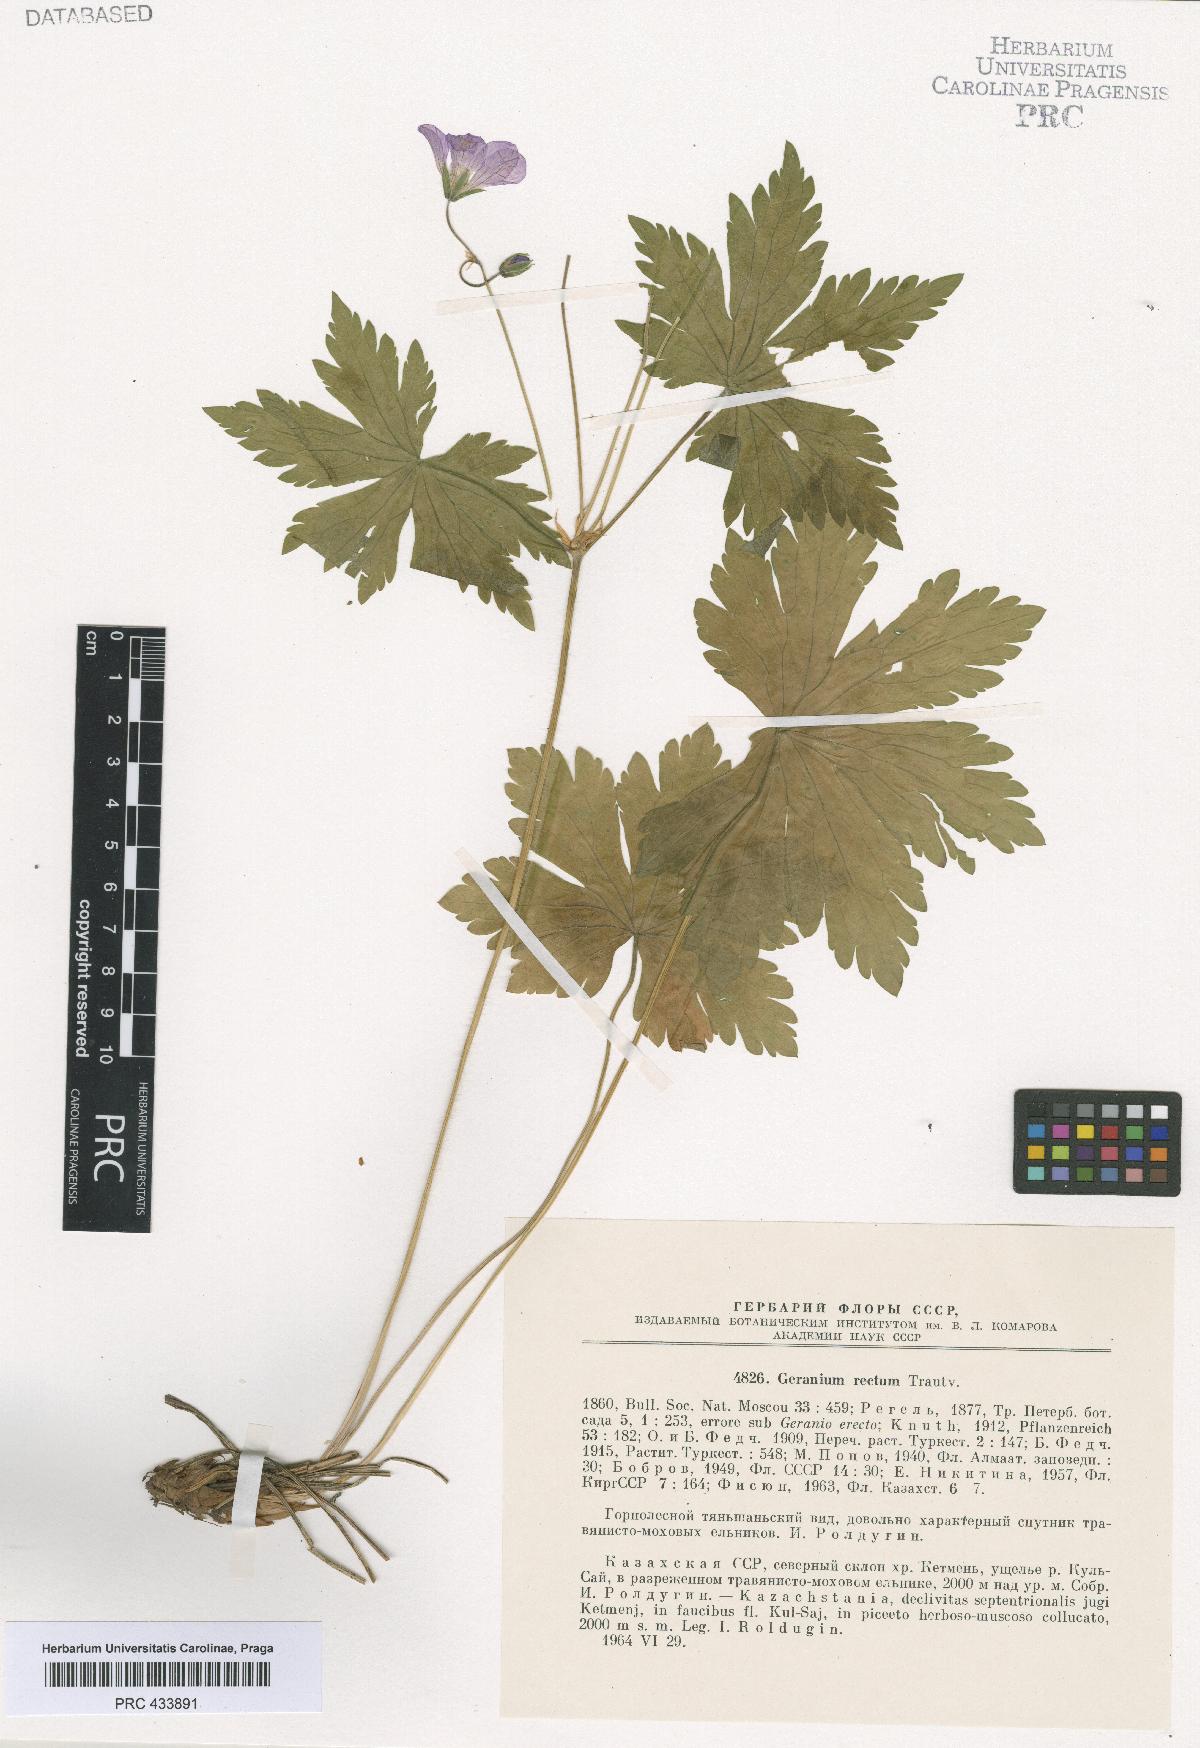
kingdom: Plantae
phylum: Tracheophyta
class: Magnoliopsida
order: Geraniales
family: Geraniaceae
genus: Geranium
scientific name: Geranium rectum
